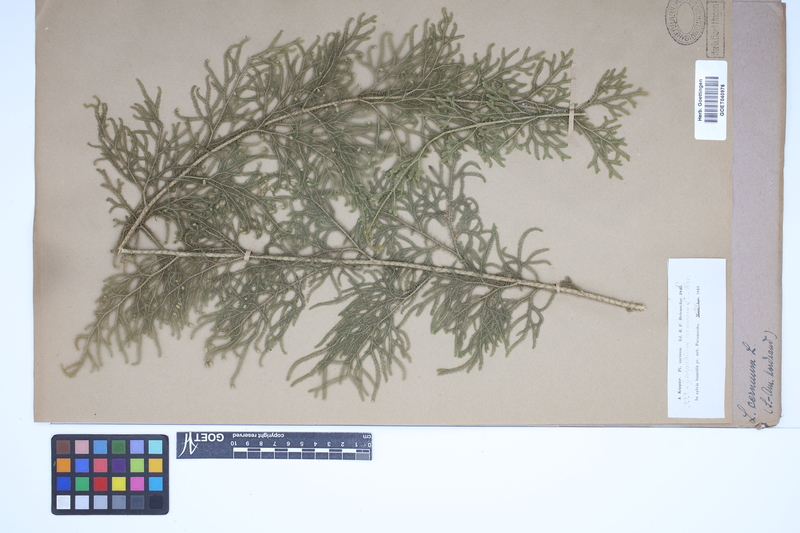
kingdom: Plantae
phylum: Tracheophyta
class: Lycopodiopsida
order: Lycopodiales
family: Lycopodiaceae
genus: Palhinhaea
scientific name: Palhinhaea cernua
